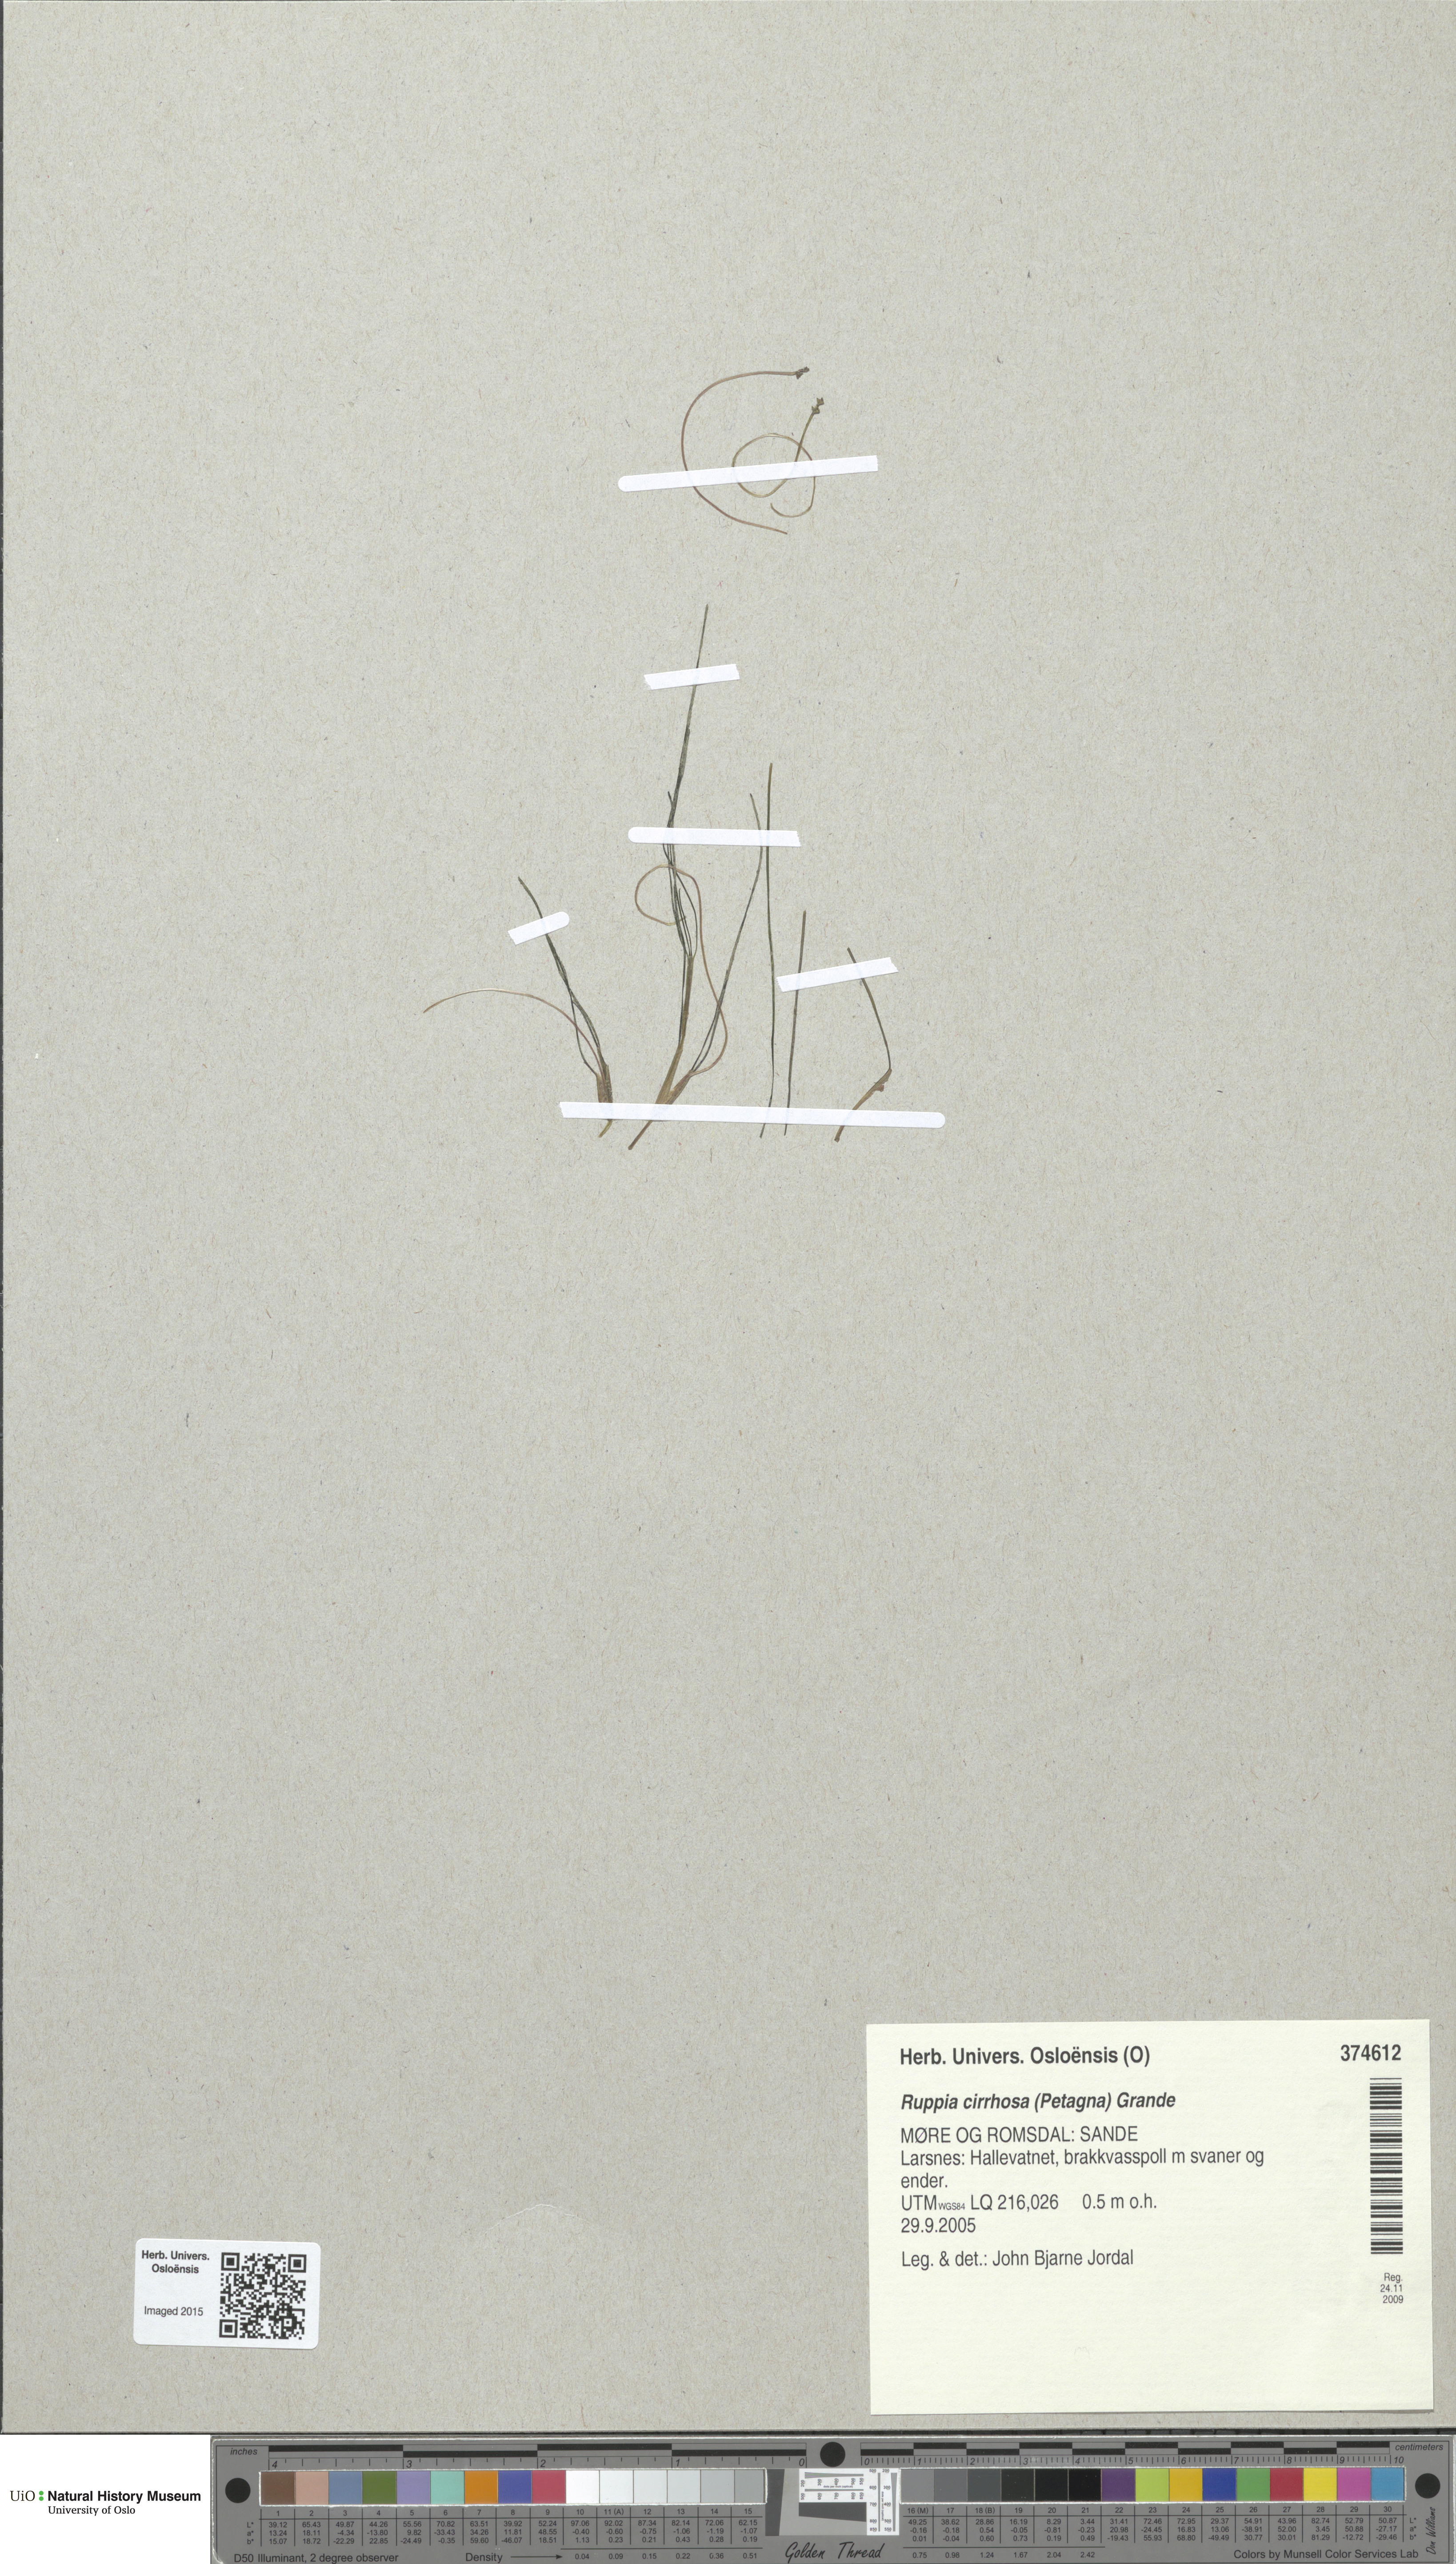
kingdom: Plantae
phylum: Tracheophyta
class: Liliopsida
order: Alismatales
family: Ruppiaceae
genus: Ruppia
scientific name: Ruppia cirrhosa
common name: Spiral tasselweed
